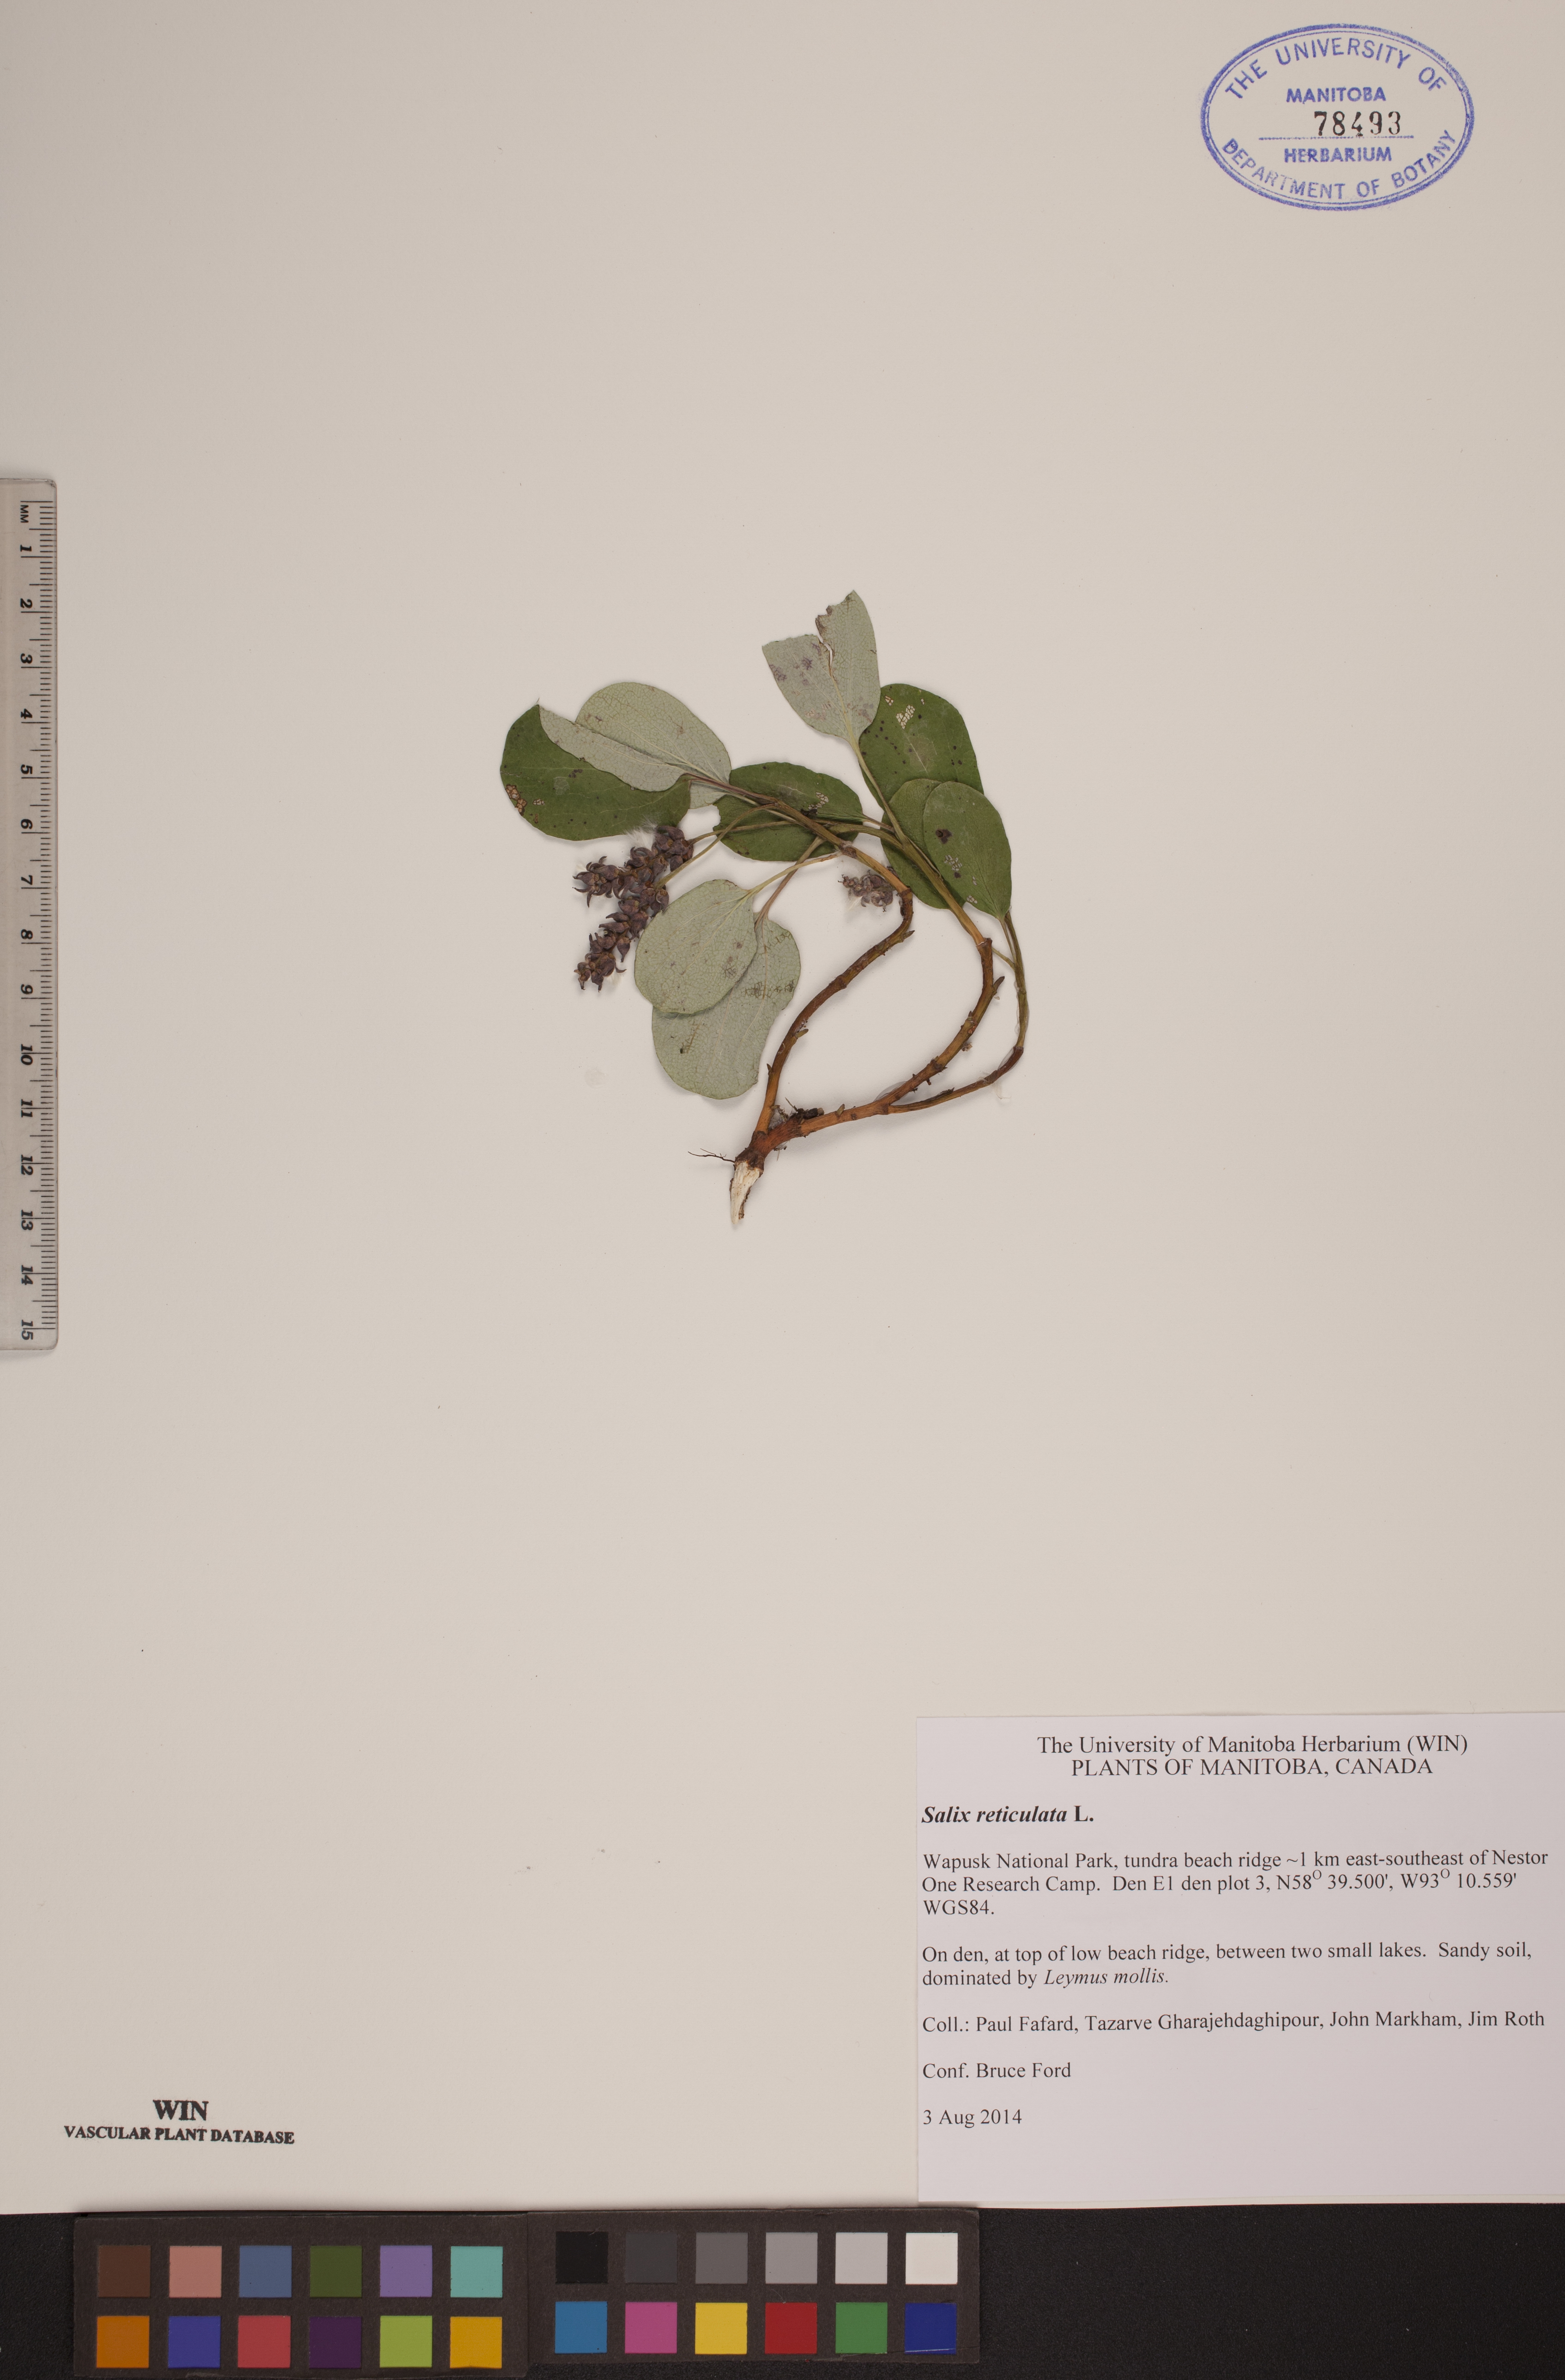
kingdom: Plantae
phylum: Tracheophyta
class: Magnoliopsida
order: Malpighiales
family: Salicaceae
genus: Salix
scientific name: Salix reticulata
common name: Net-leaved willow
